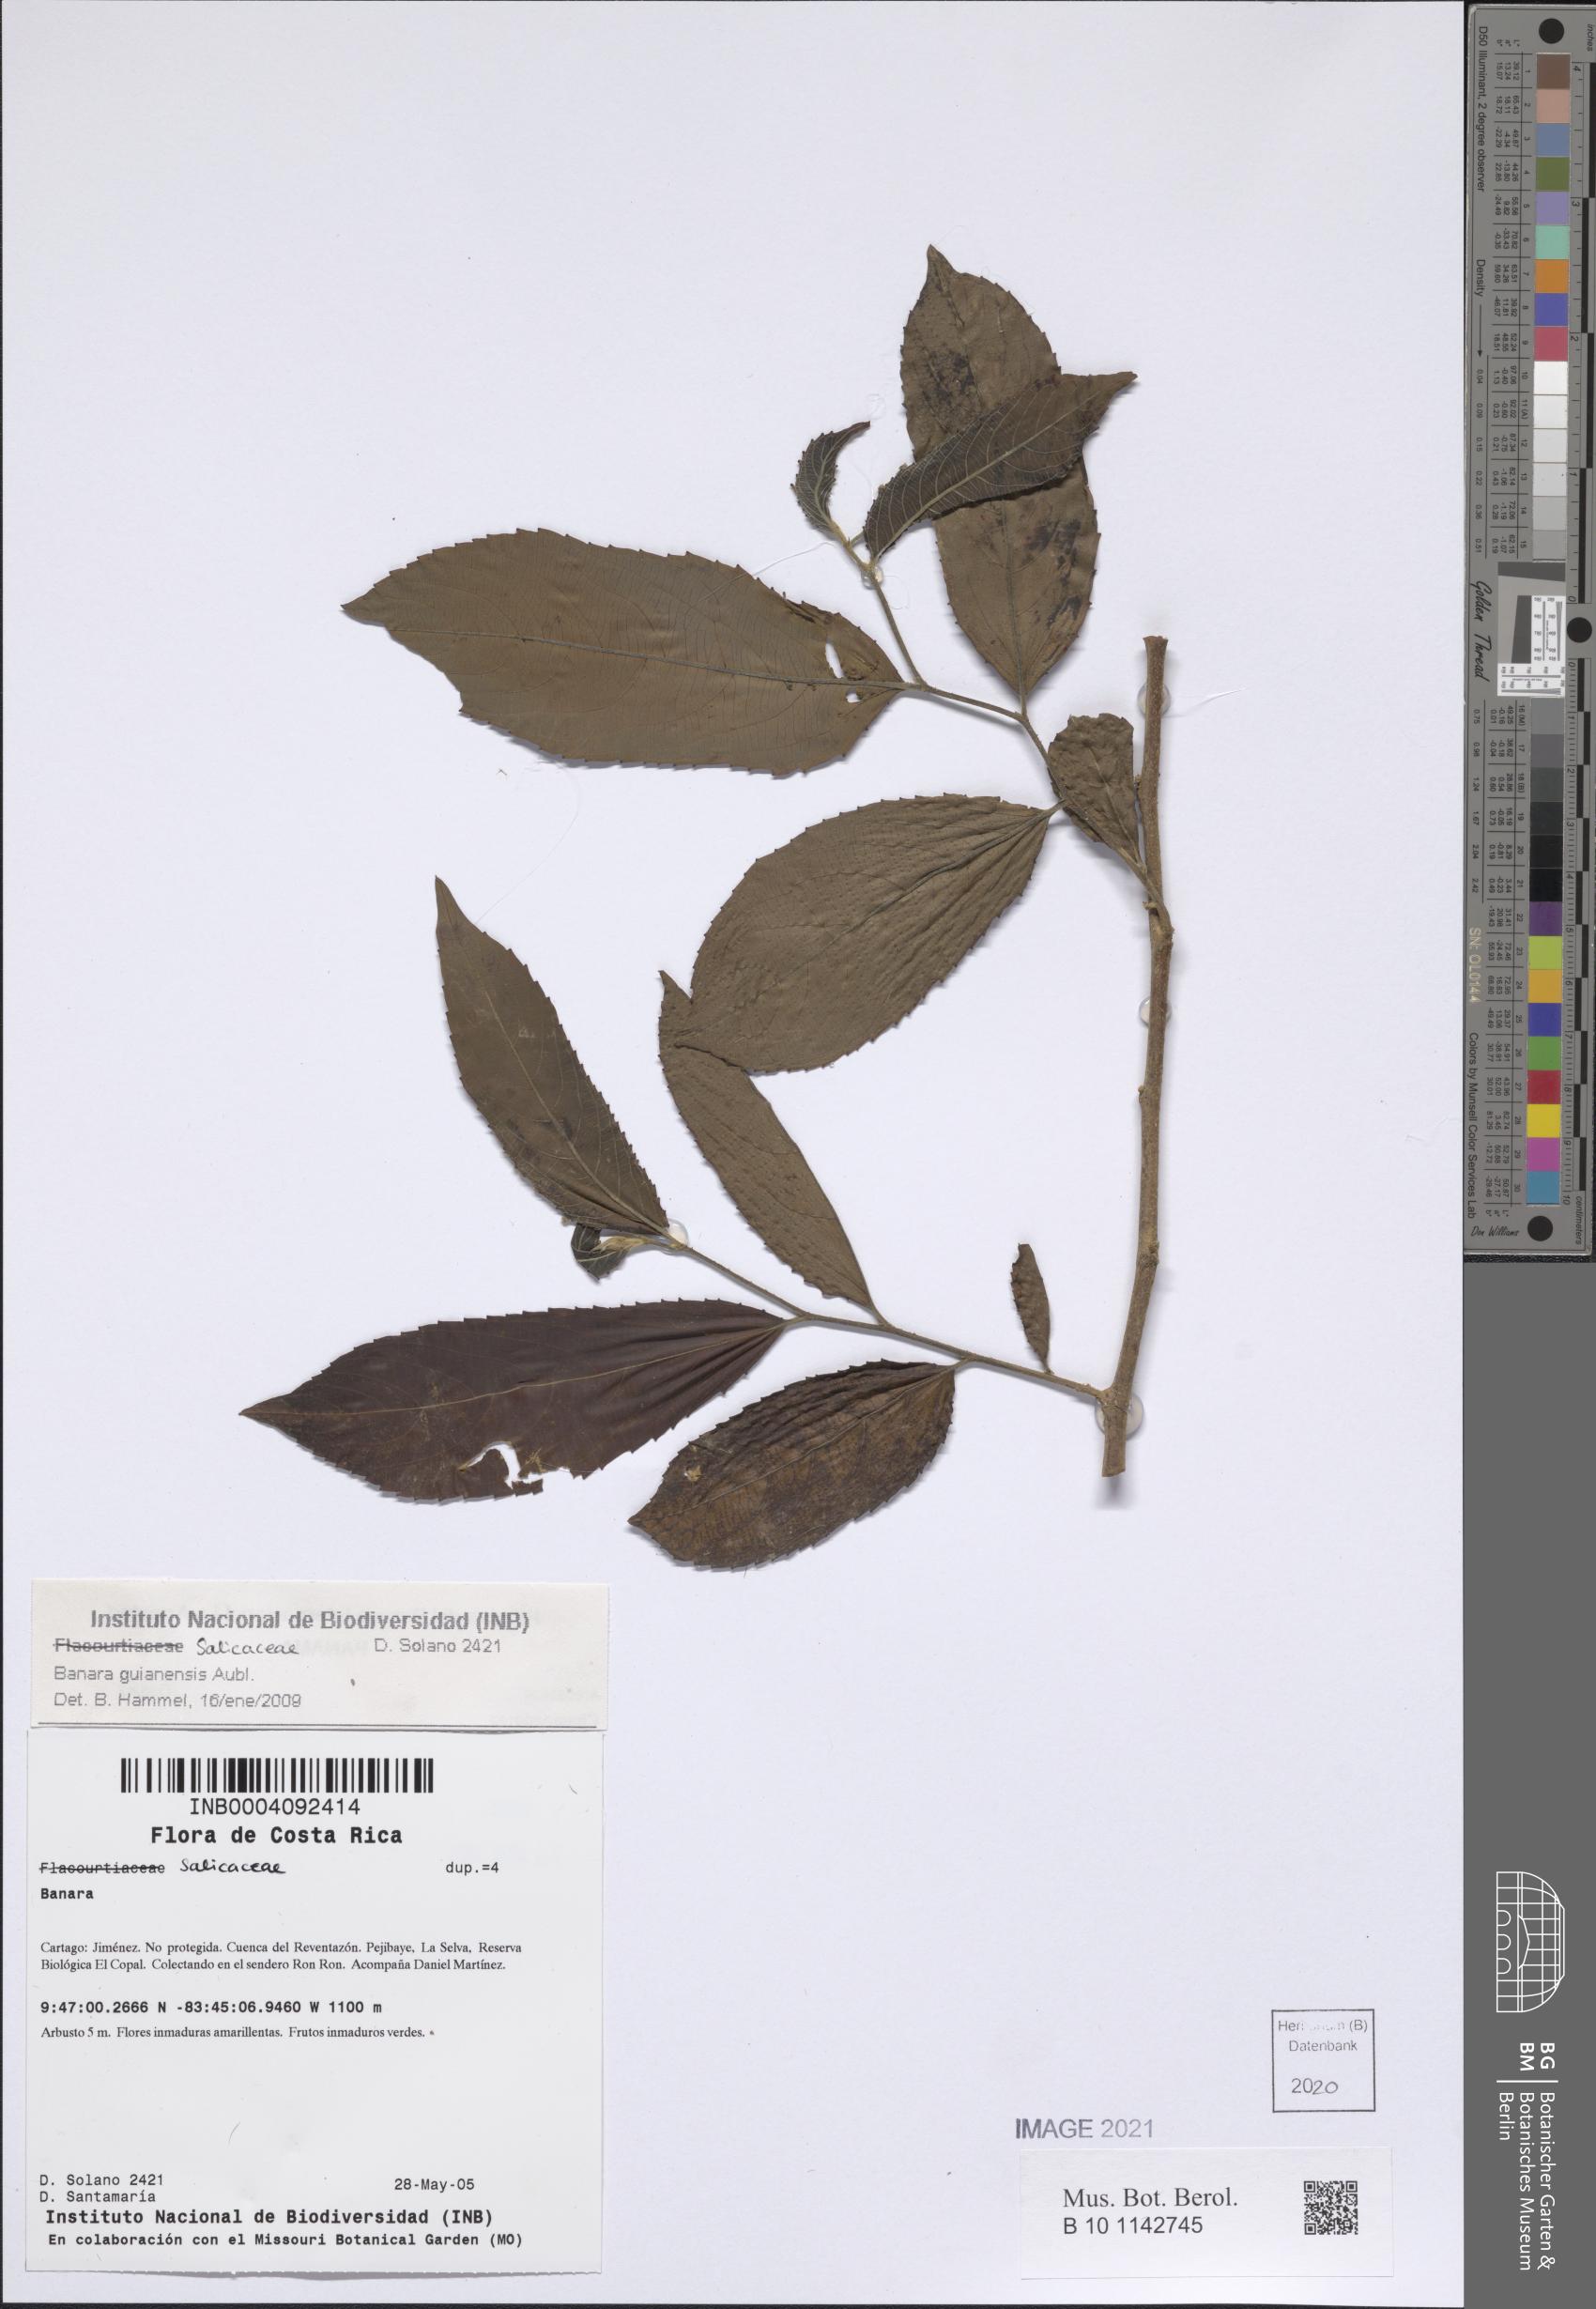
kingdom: Plantae
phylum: Tracheophyta
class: Magnoliopsida
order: Malpighiales
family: Salicaceae
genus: Banara
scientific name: Banara guianensis
